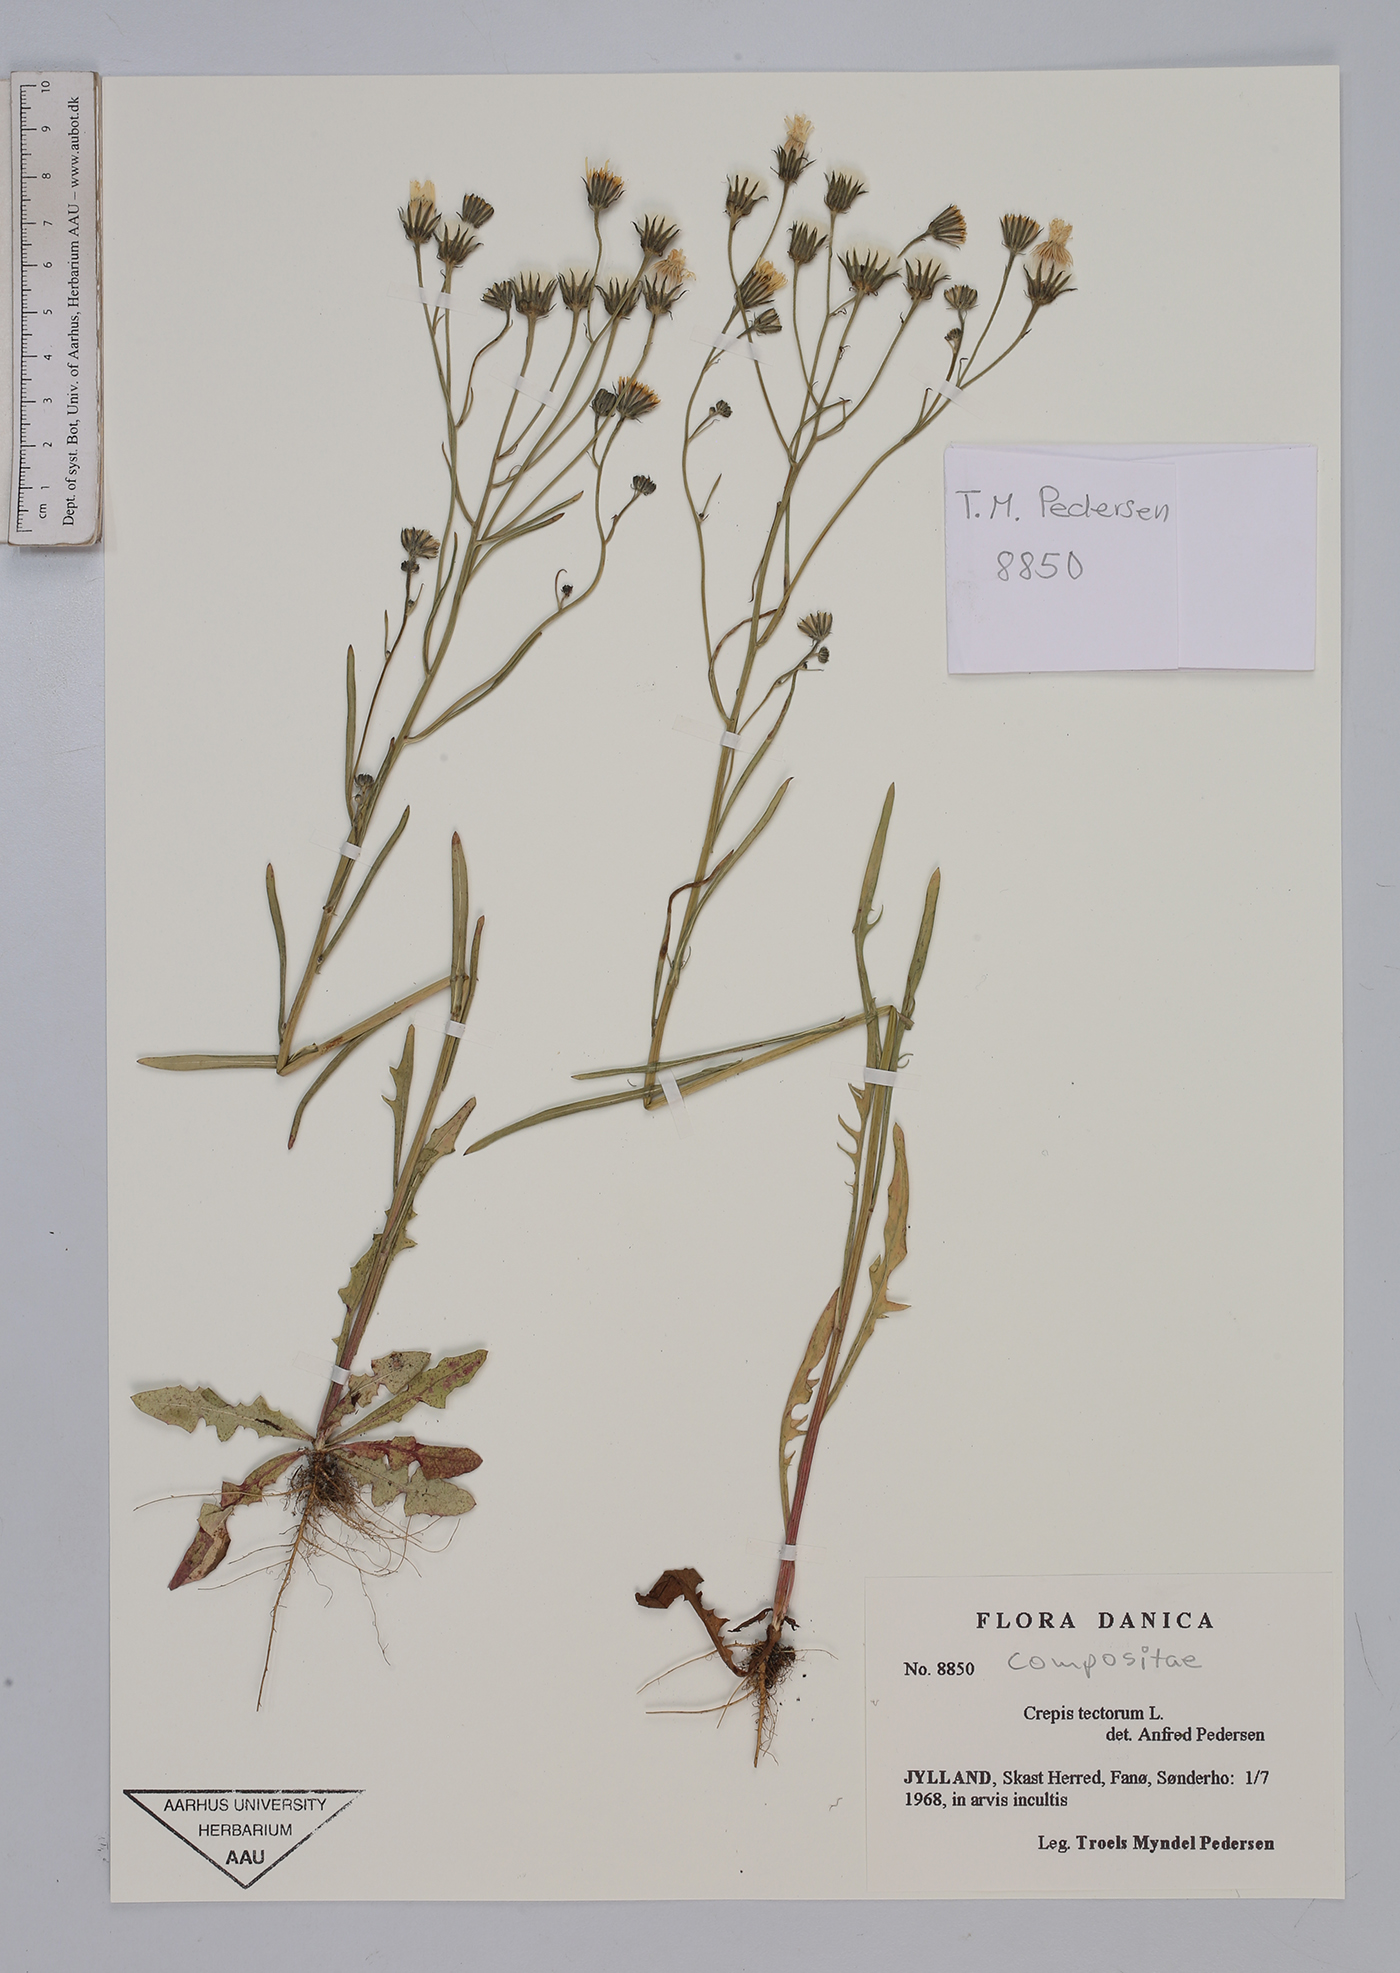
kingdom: Plantae
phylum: Tracheophyta
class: Magnoliopsida
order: Asterales
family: Asteraceae
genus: Crepis
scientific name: Crepis tectorum
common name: Narrow-leaved hawk's-beard
